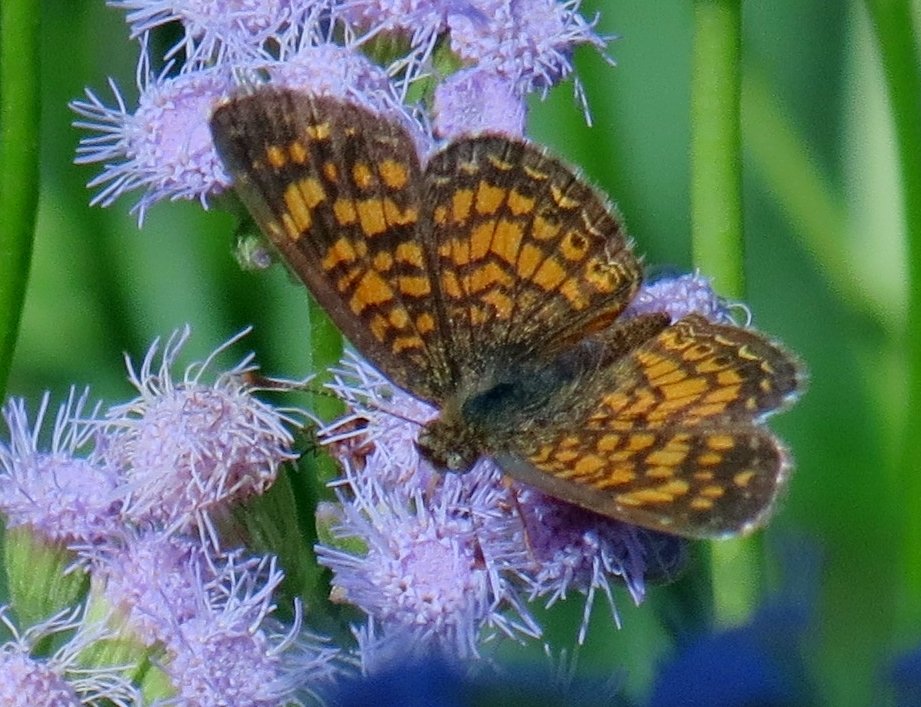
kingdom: Animalia
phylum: Arthropoda
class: Insecta
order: Lepidoptera
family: Nymphalidae
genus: Phyciodes
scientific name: Phyciodes vesta
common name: Vesta Crescent
